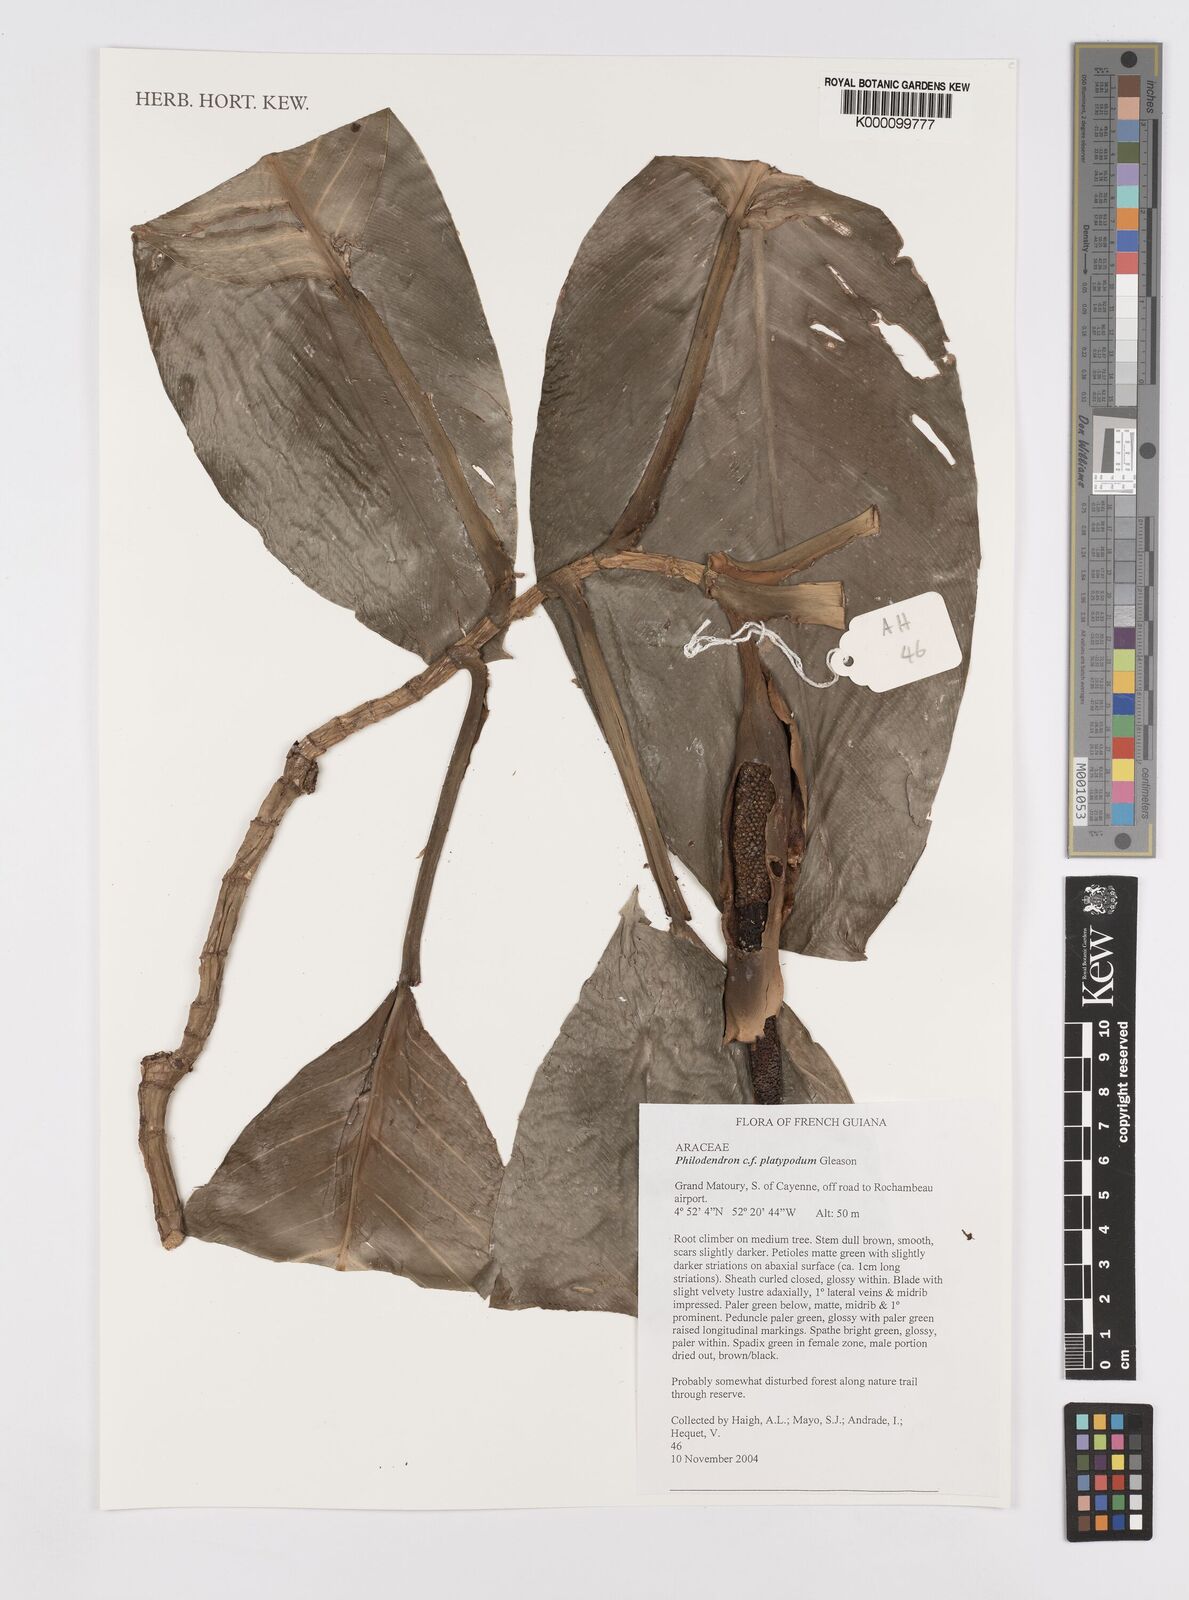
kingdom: Plantae
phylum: Tracheophyta
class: Liliopsida
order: Alismatales
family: Araceae
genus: Philodendron
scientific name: Philodendron platypodum
